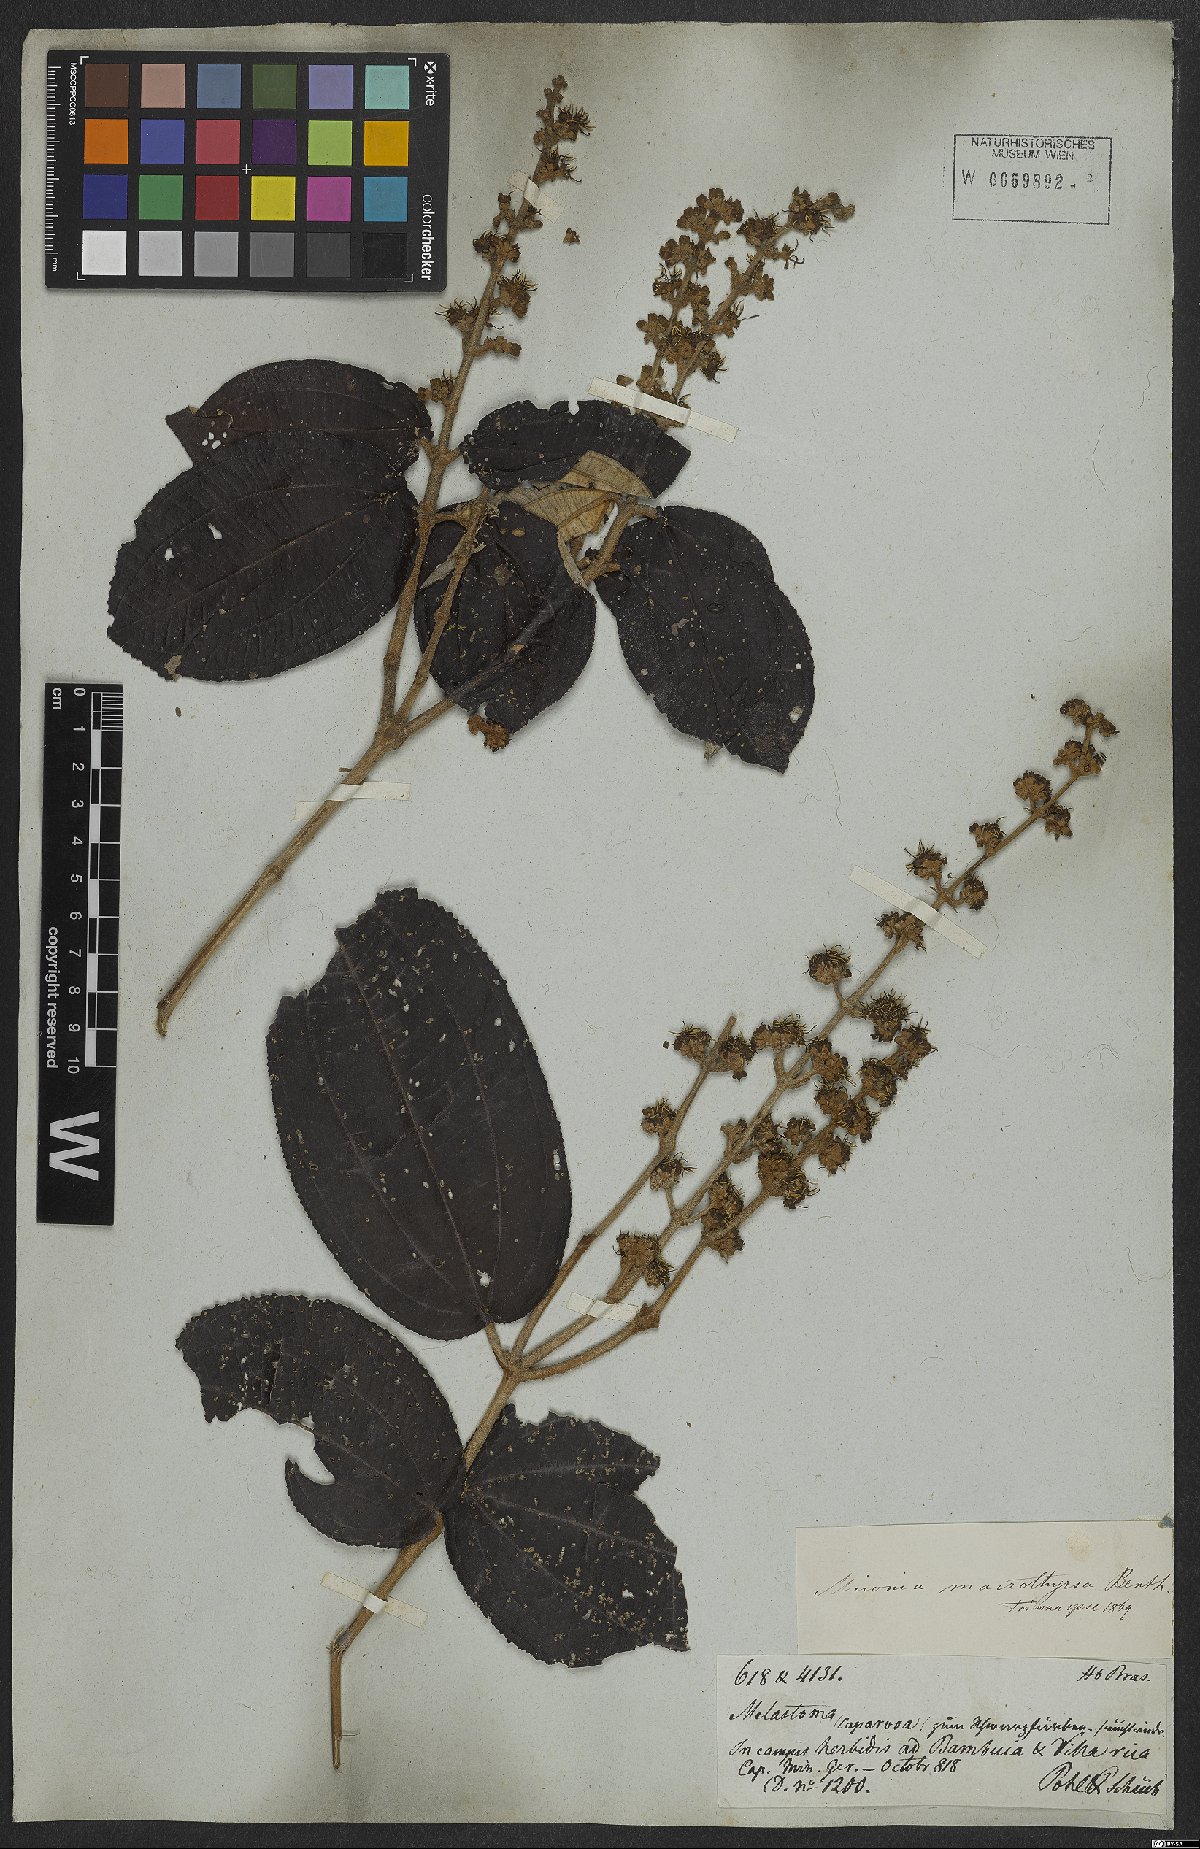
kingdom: Plantae
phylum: Tracheophyta
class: Magnoliopsida
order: Myrtales
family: Melastomataceae
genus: Miconia
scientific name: Miconia aplostachya
